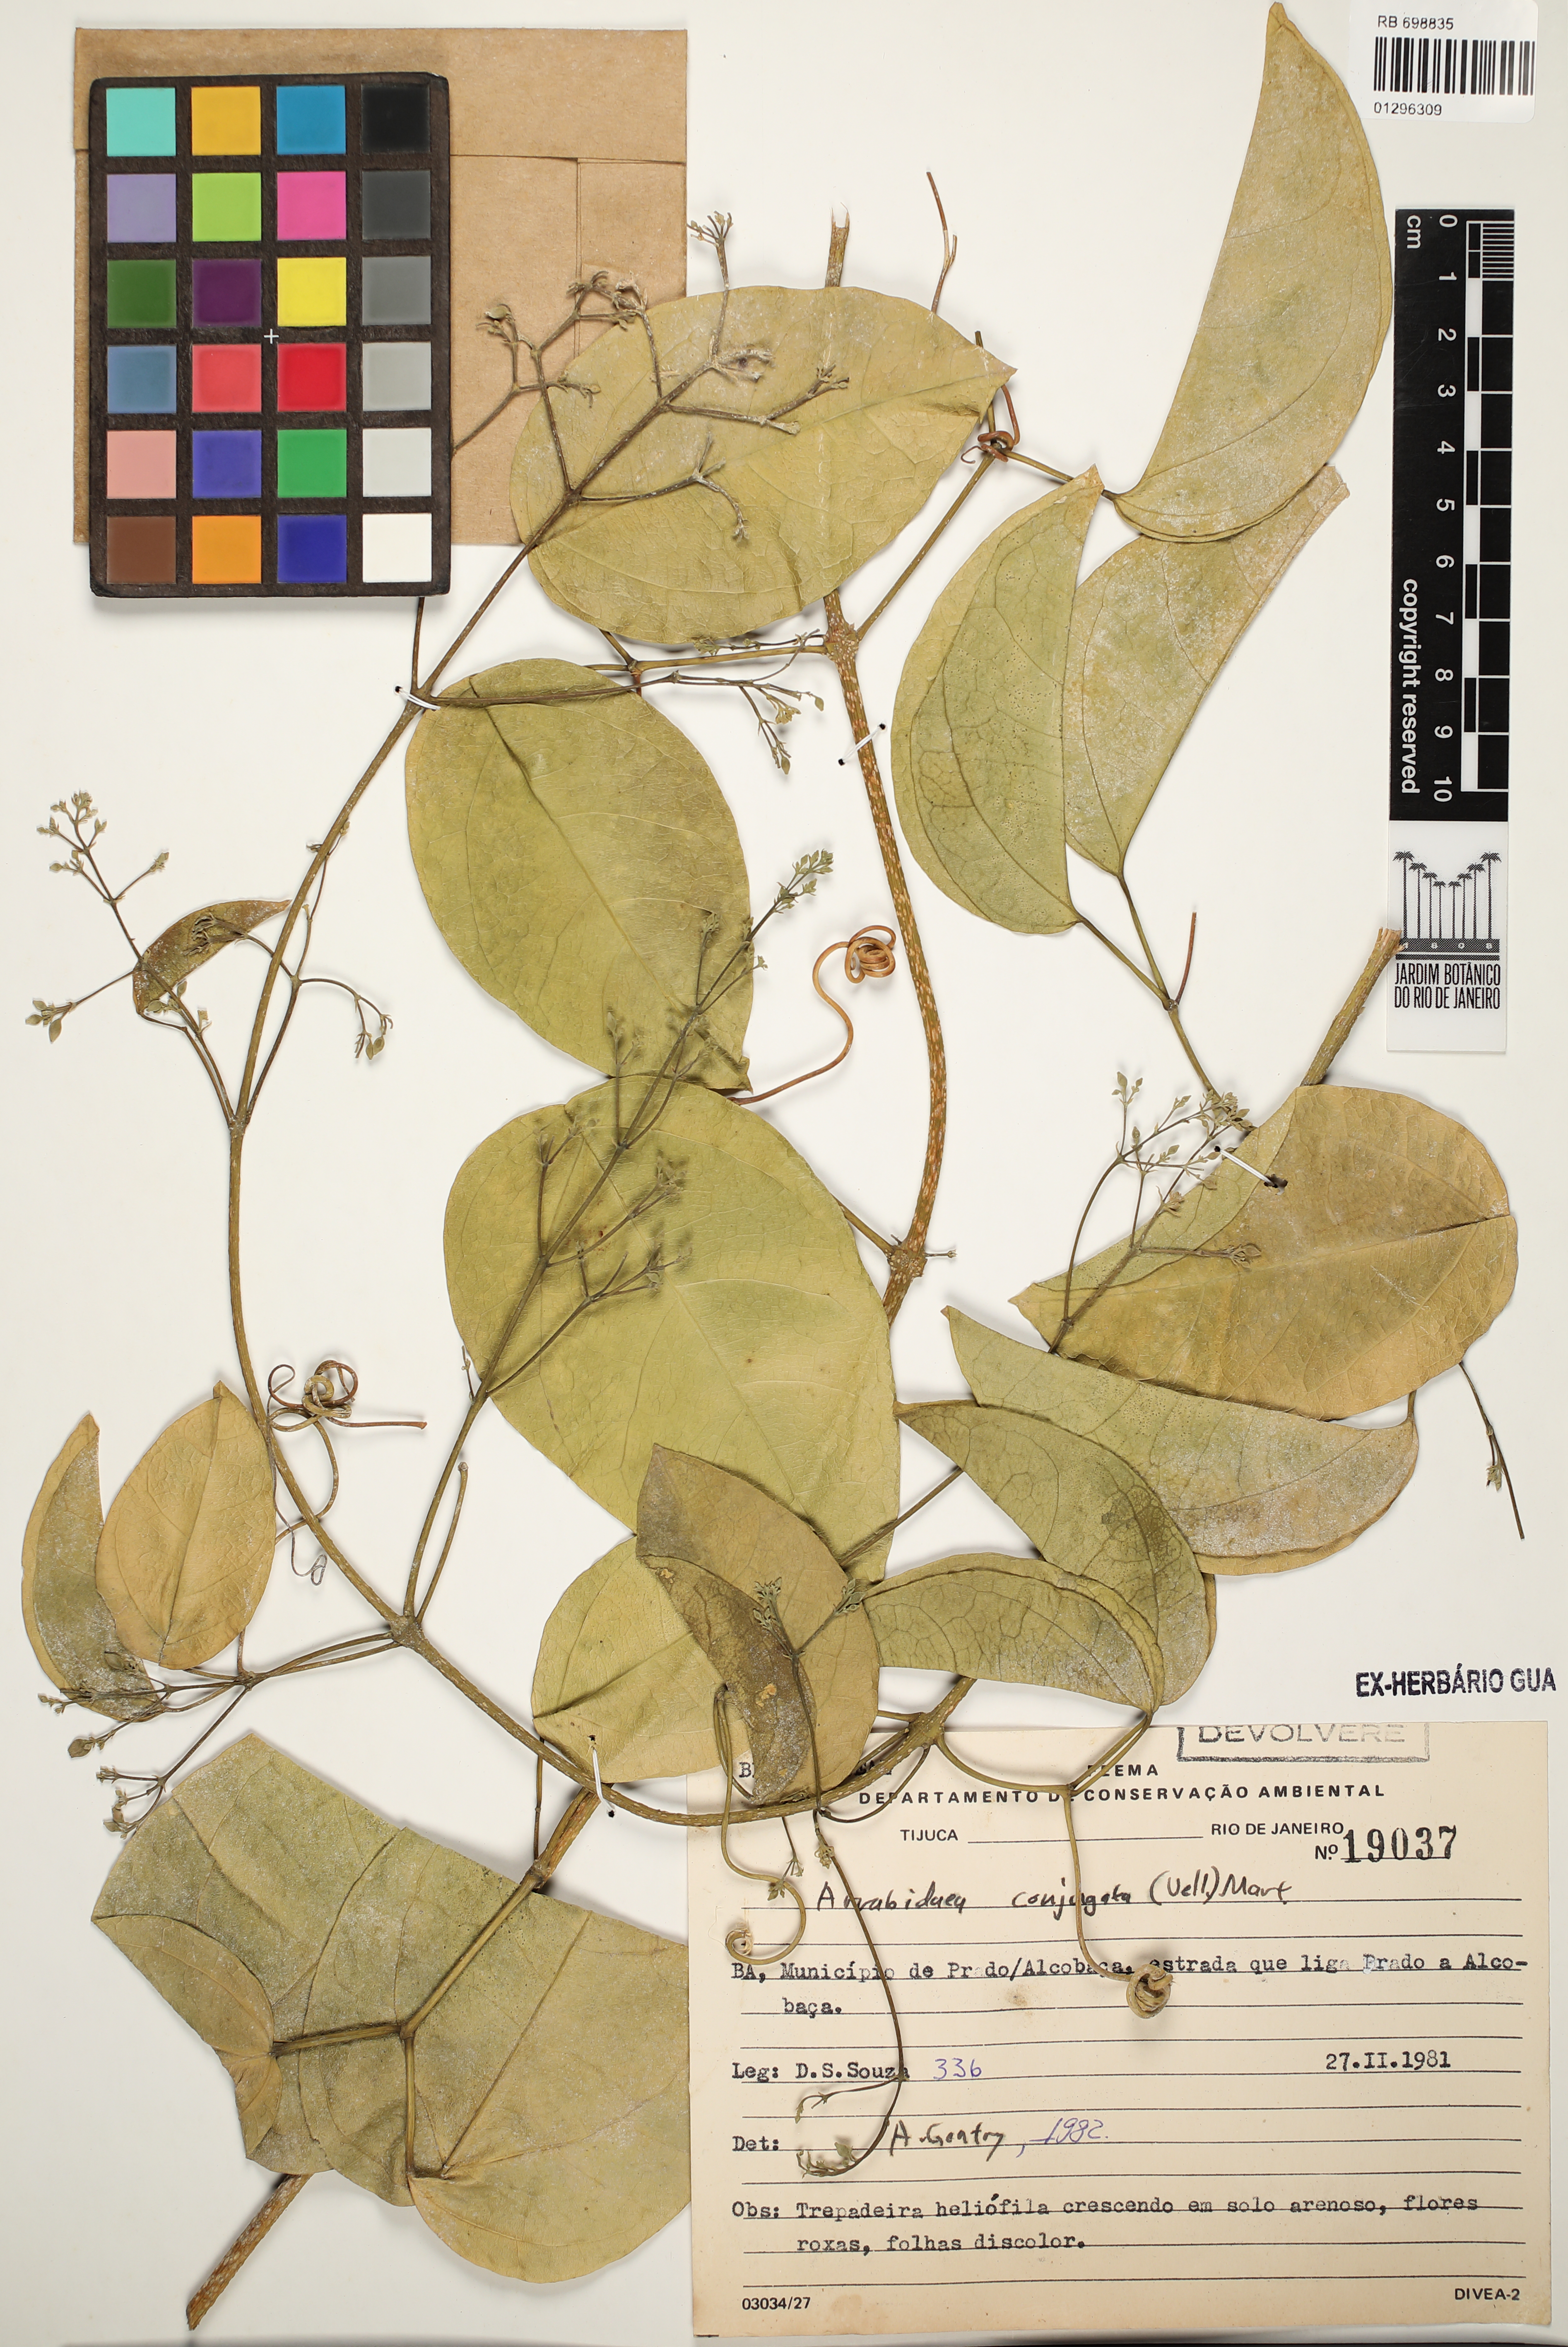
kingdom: Plantae
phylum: Tracheophyta
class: Magnoliopsida
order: Lamiales
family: Bignoniaceae
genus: Fridericia
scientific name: Fridericia conjugata
